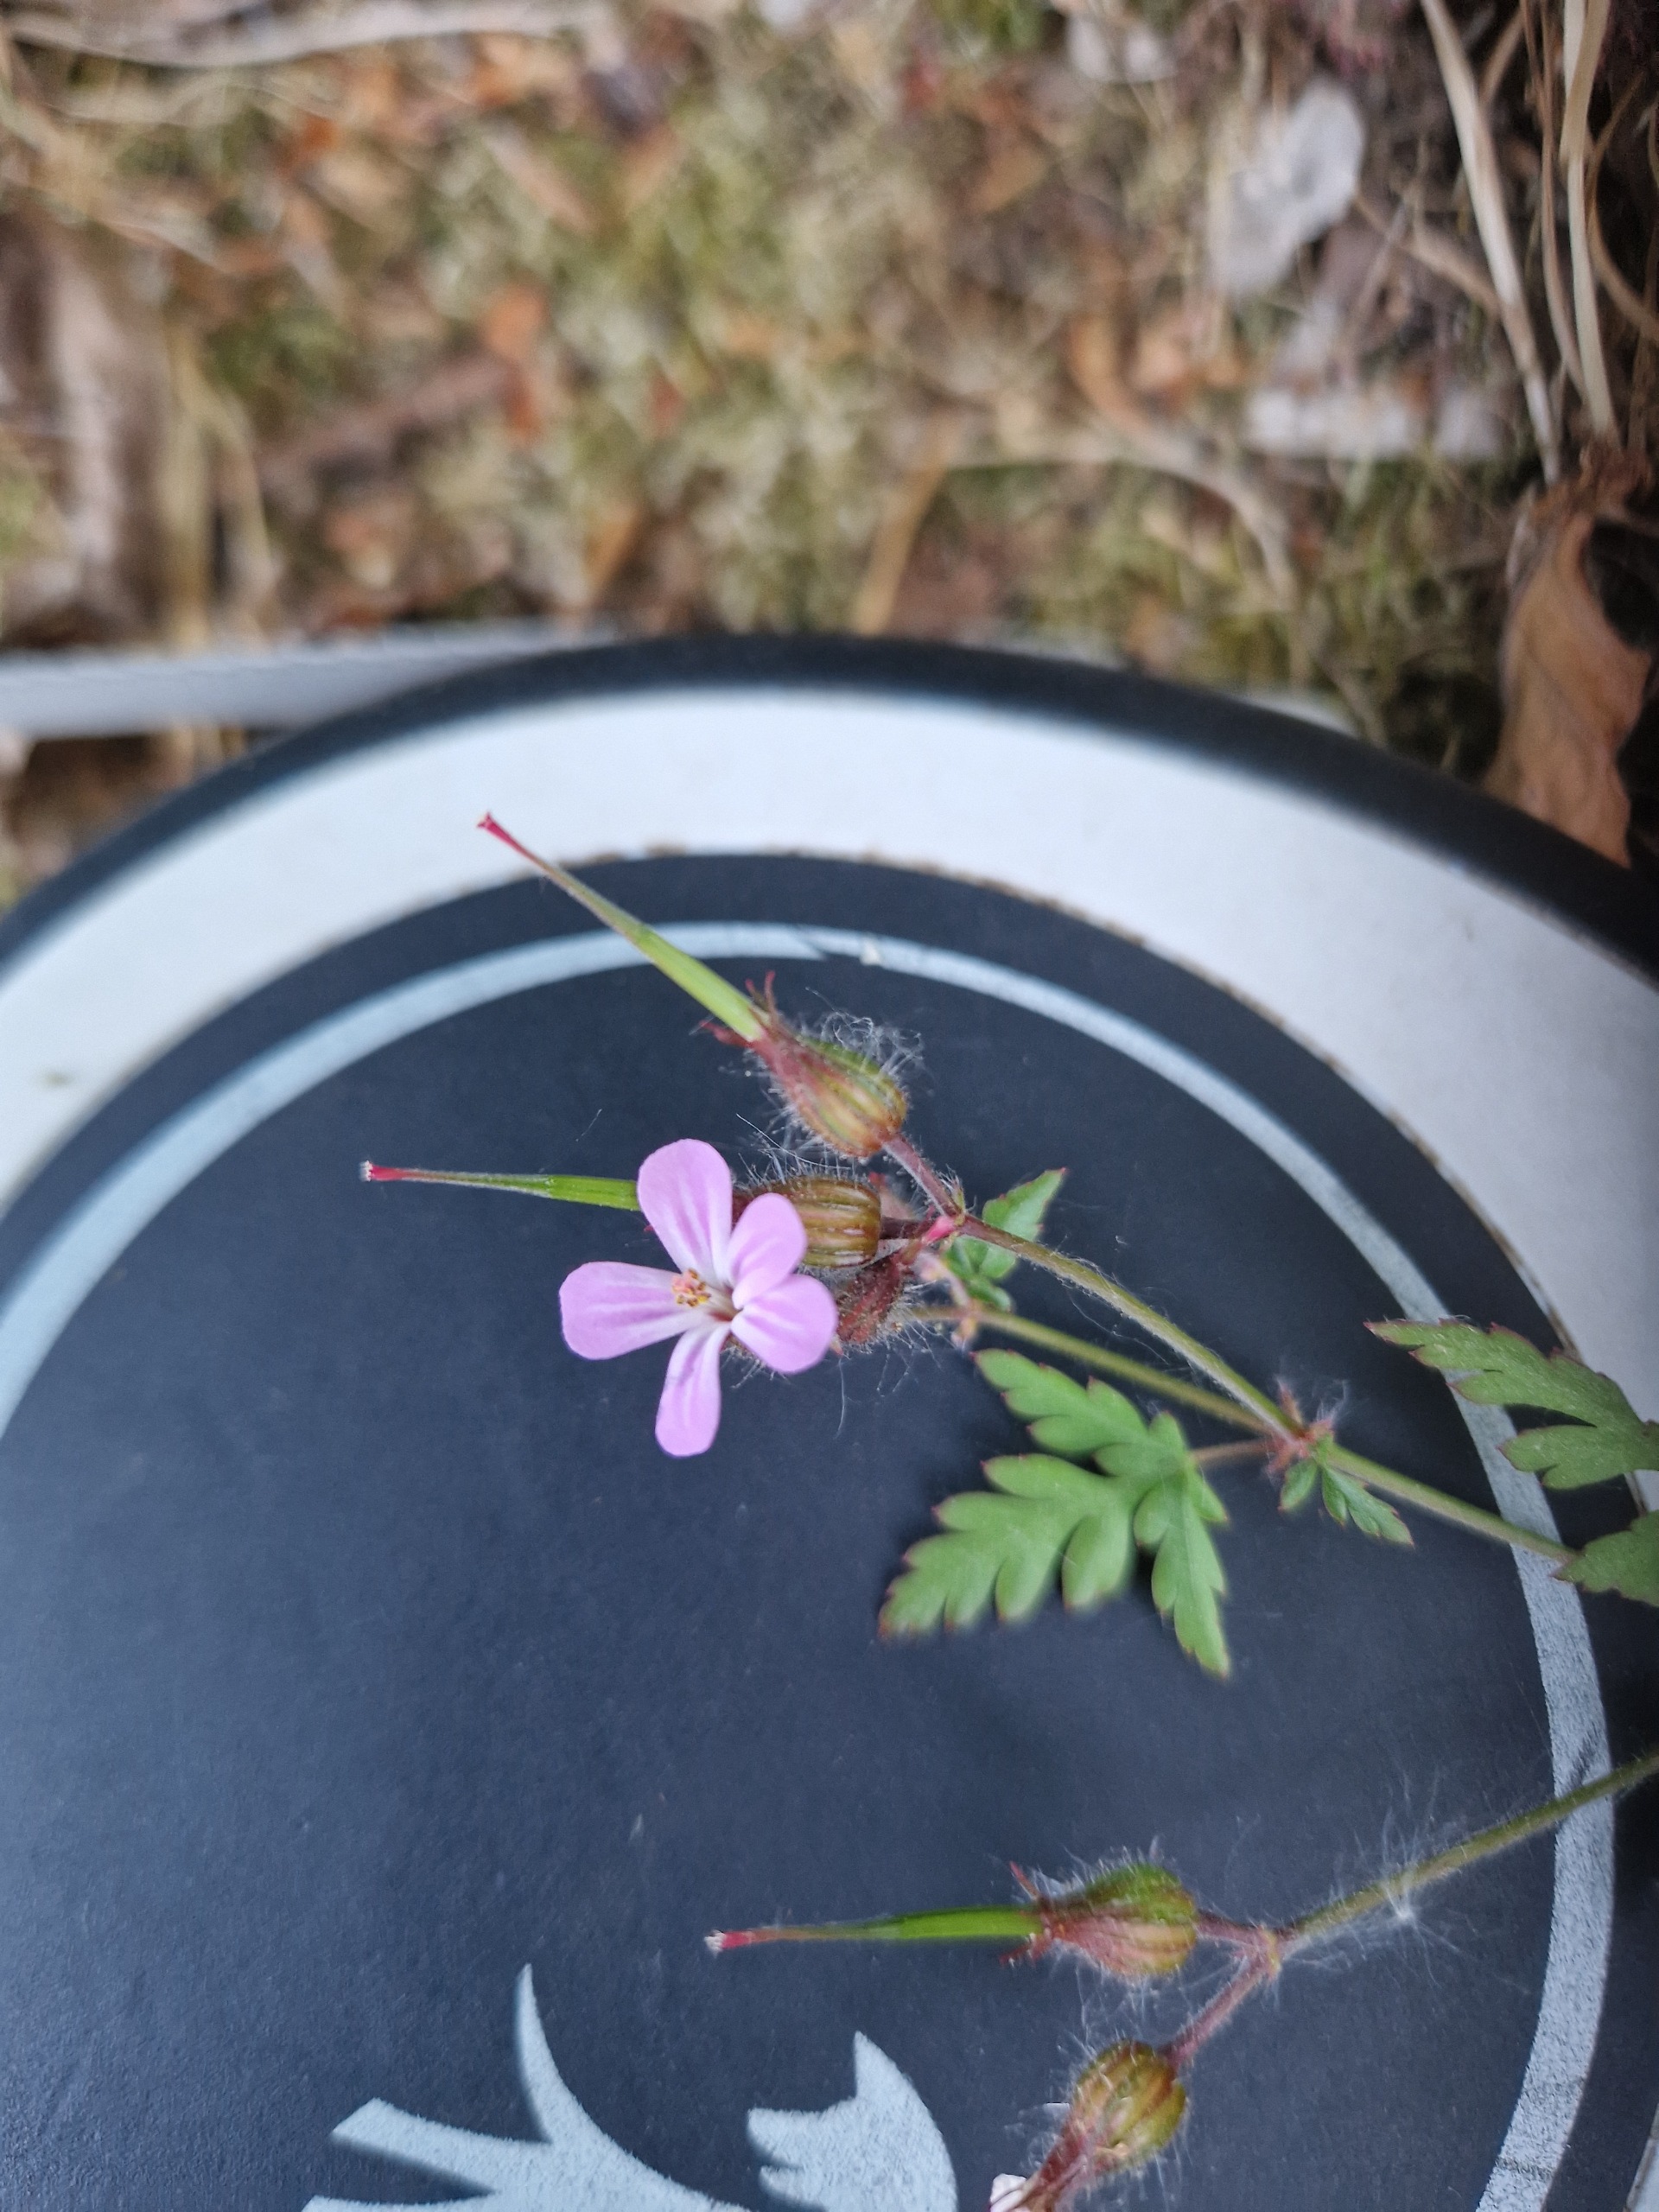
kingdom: Plantae
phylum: Tracheophyta
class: Magnoliopsida
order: Geraniales
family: Geraniaceae
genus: Geranium
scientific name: Geranium robertianum
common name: Stinkende storkenæb
